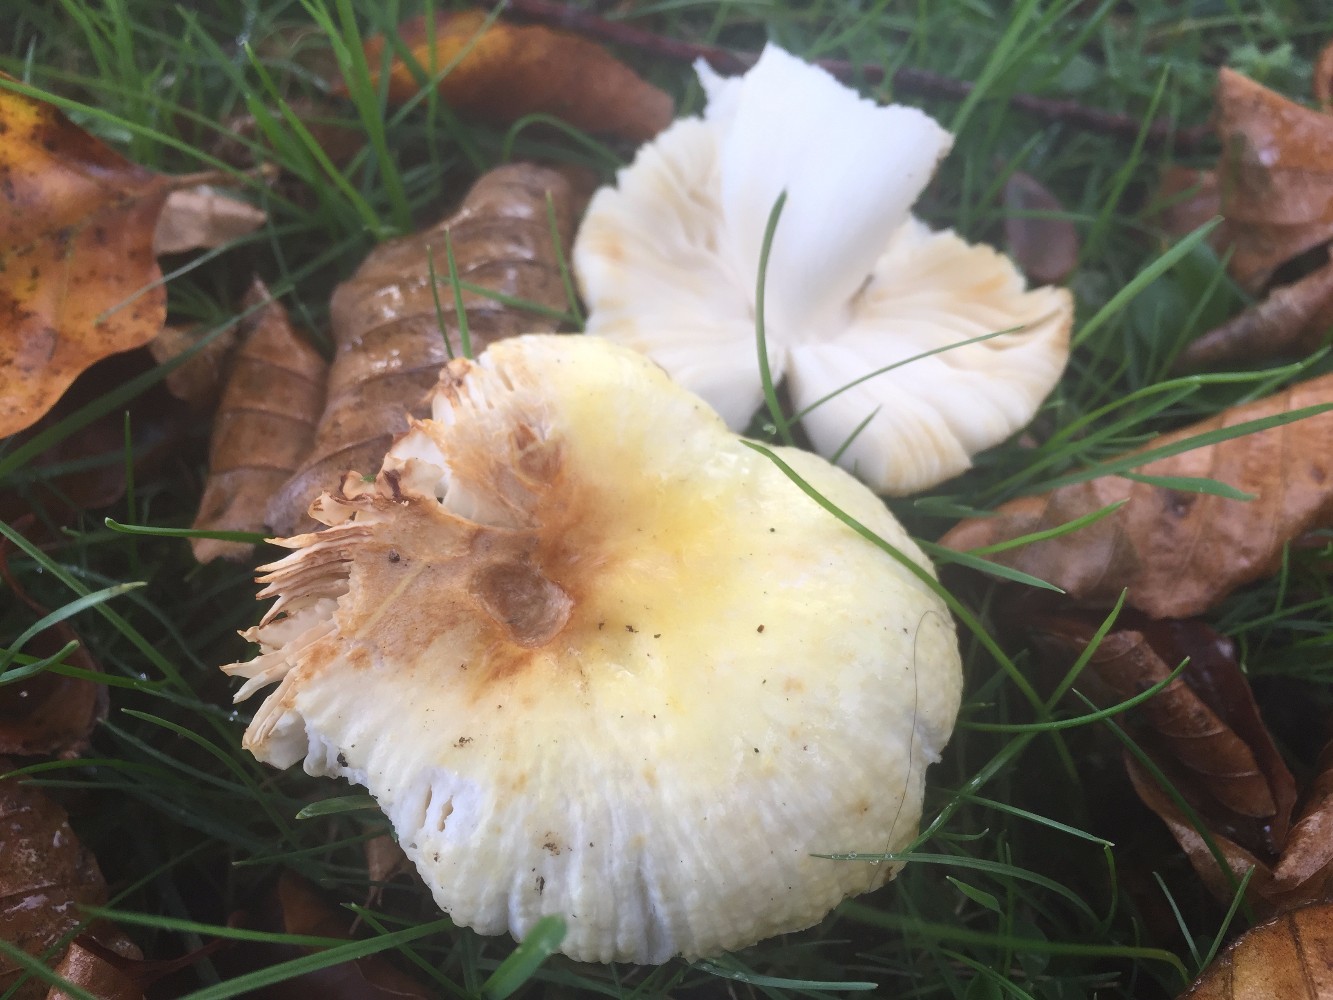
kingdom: Fungi
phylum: Basidiomycota
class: Agaricomycetes
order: Russulales
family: Russulaceae
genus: Russula
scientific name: Russula solaris
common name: sol-skørhat
